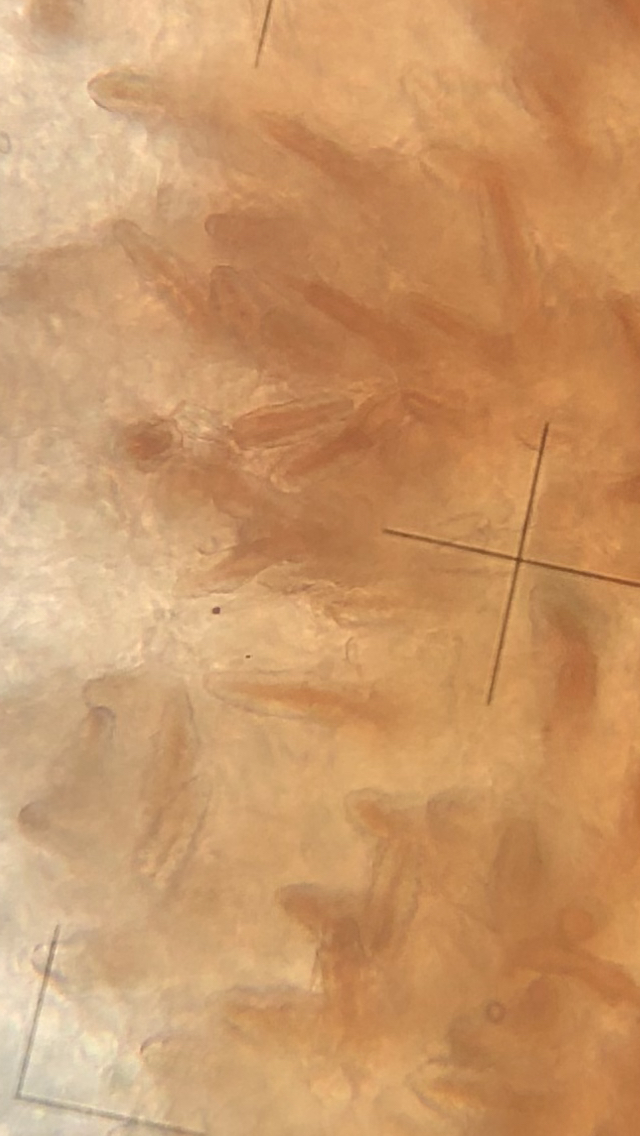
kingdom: Fungi
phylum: Basidiomycota
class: Agaricomycetes
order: Russulales
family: Echinodontiaceae
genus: Amylostereum
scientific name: Amylostereum laevigatum
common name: ene-lædersvamp
